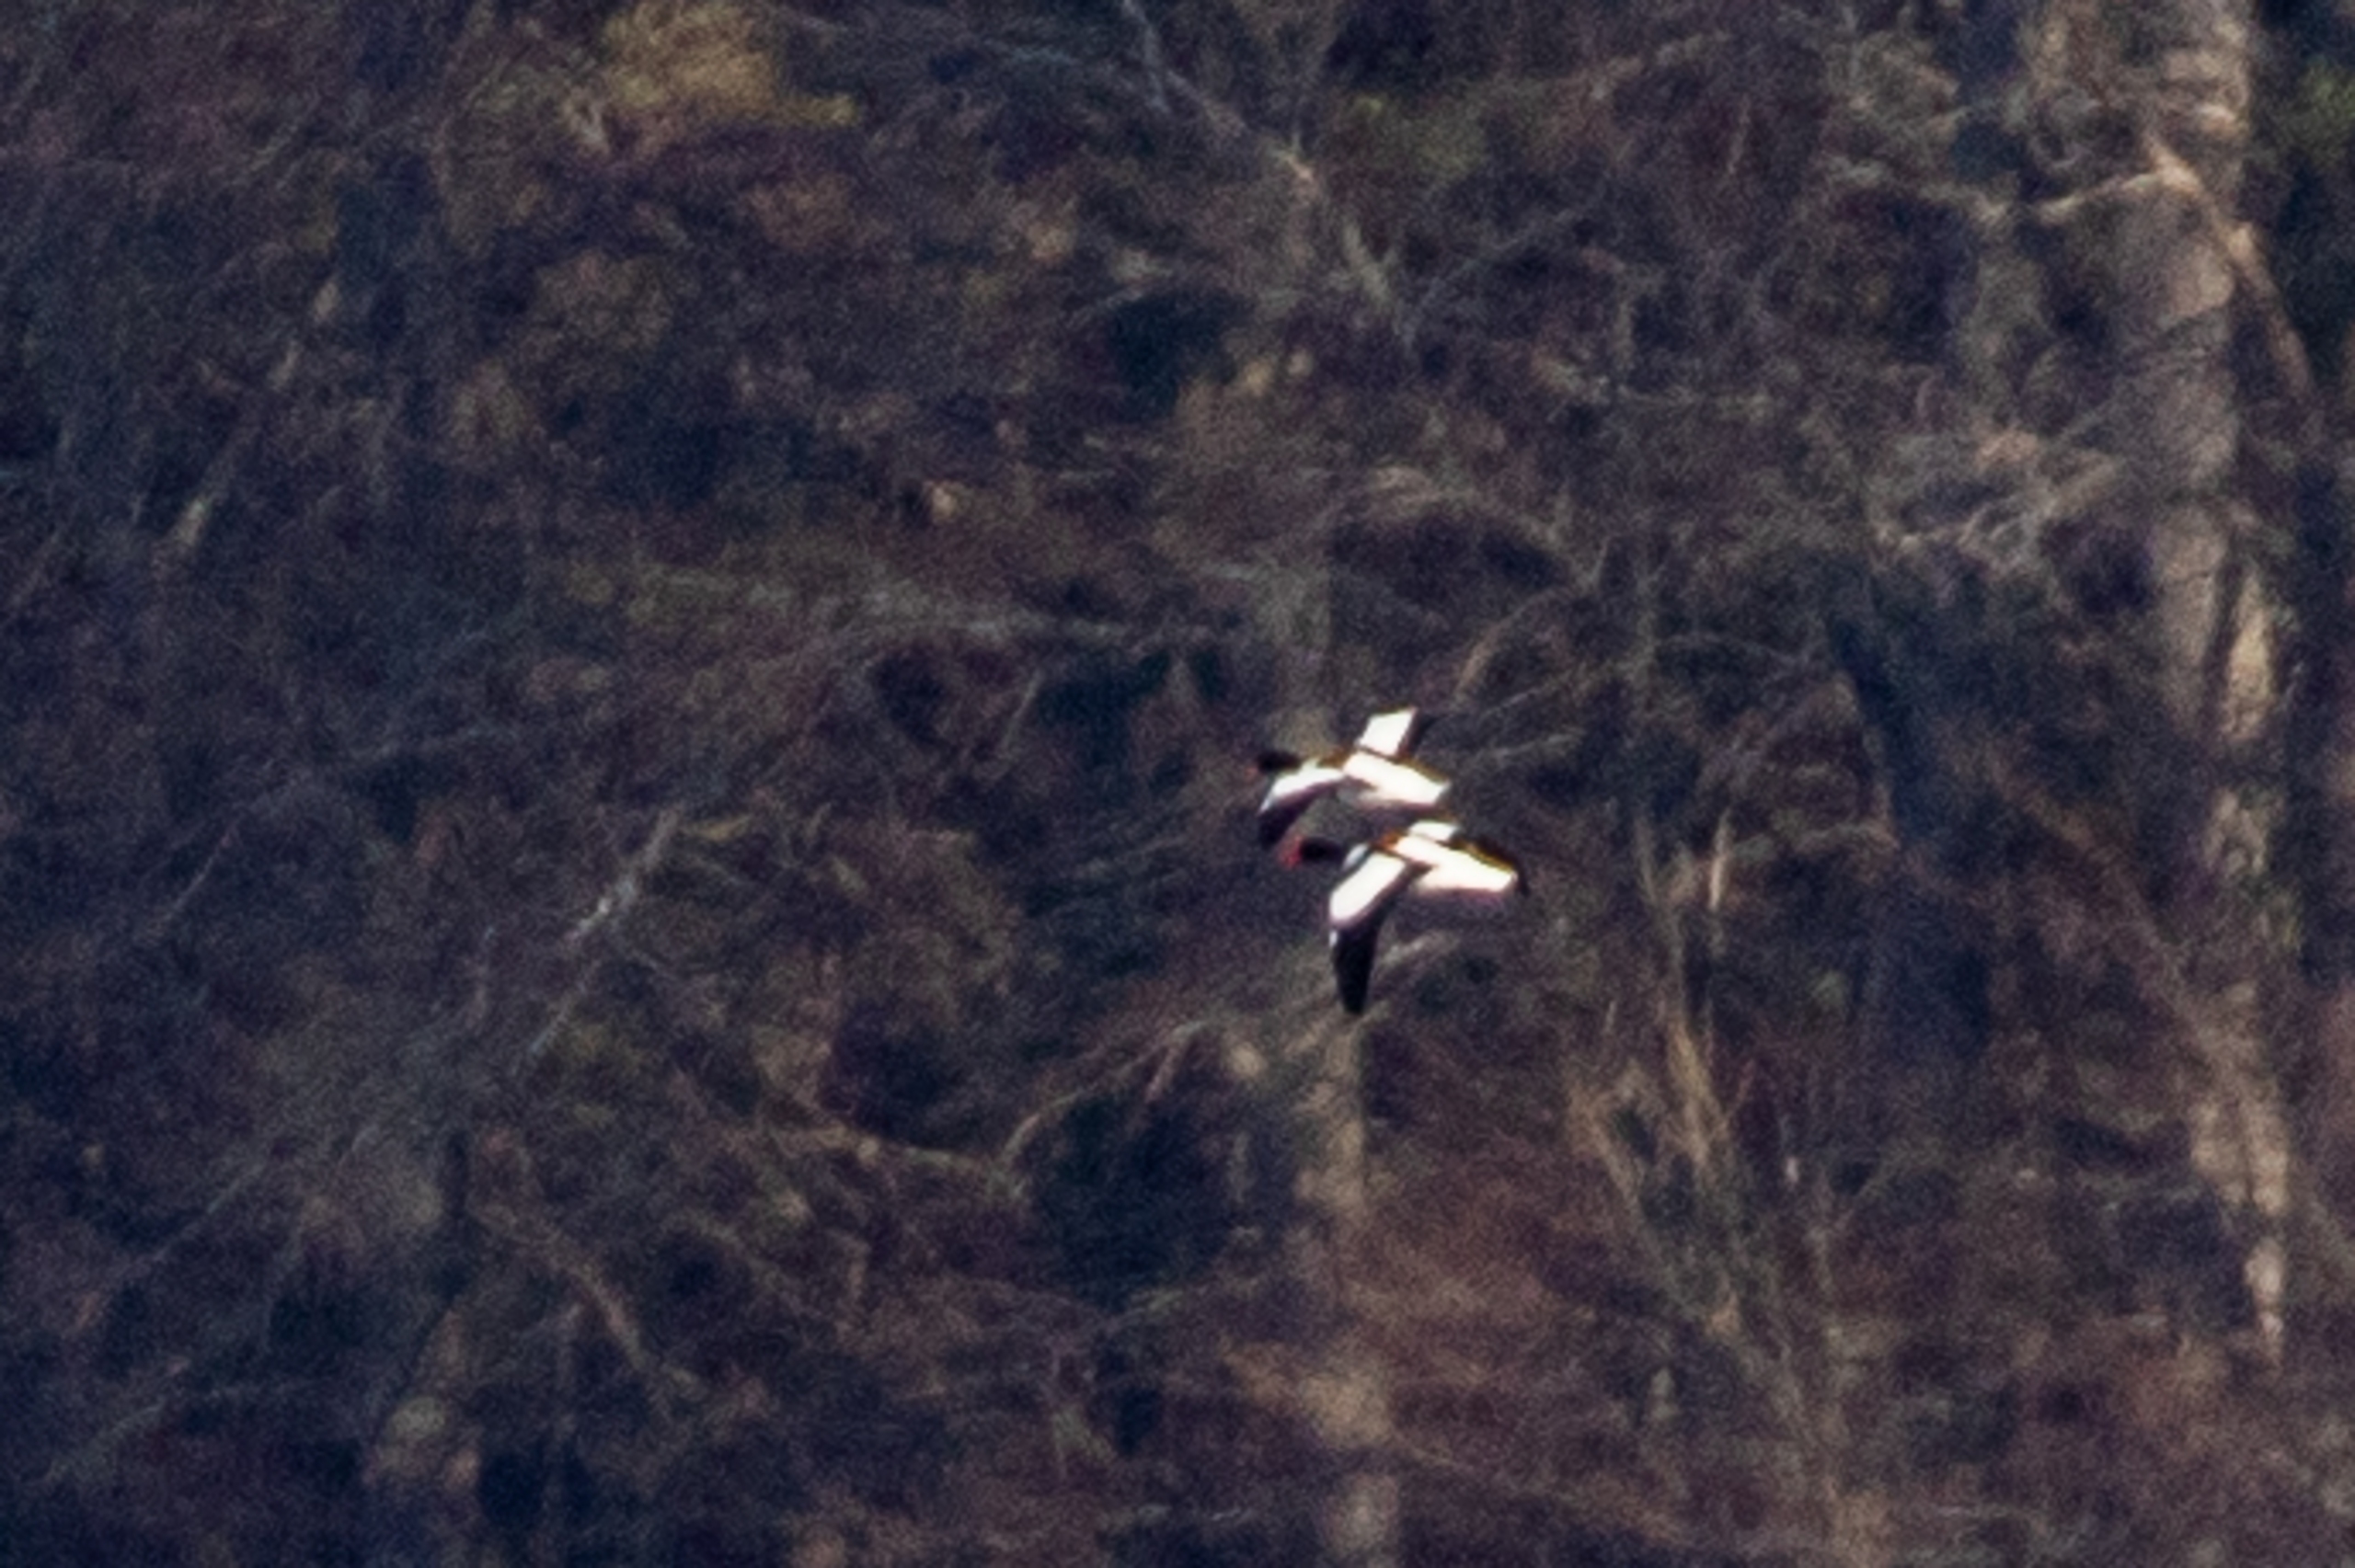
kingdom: Animalia
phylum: Chordata
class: Aves
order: Anseriformes
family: Anatidae
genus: Tadorna
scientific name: Tadorna tadorna
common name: Gravand
